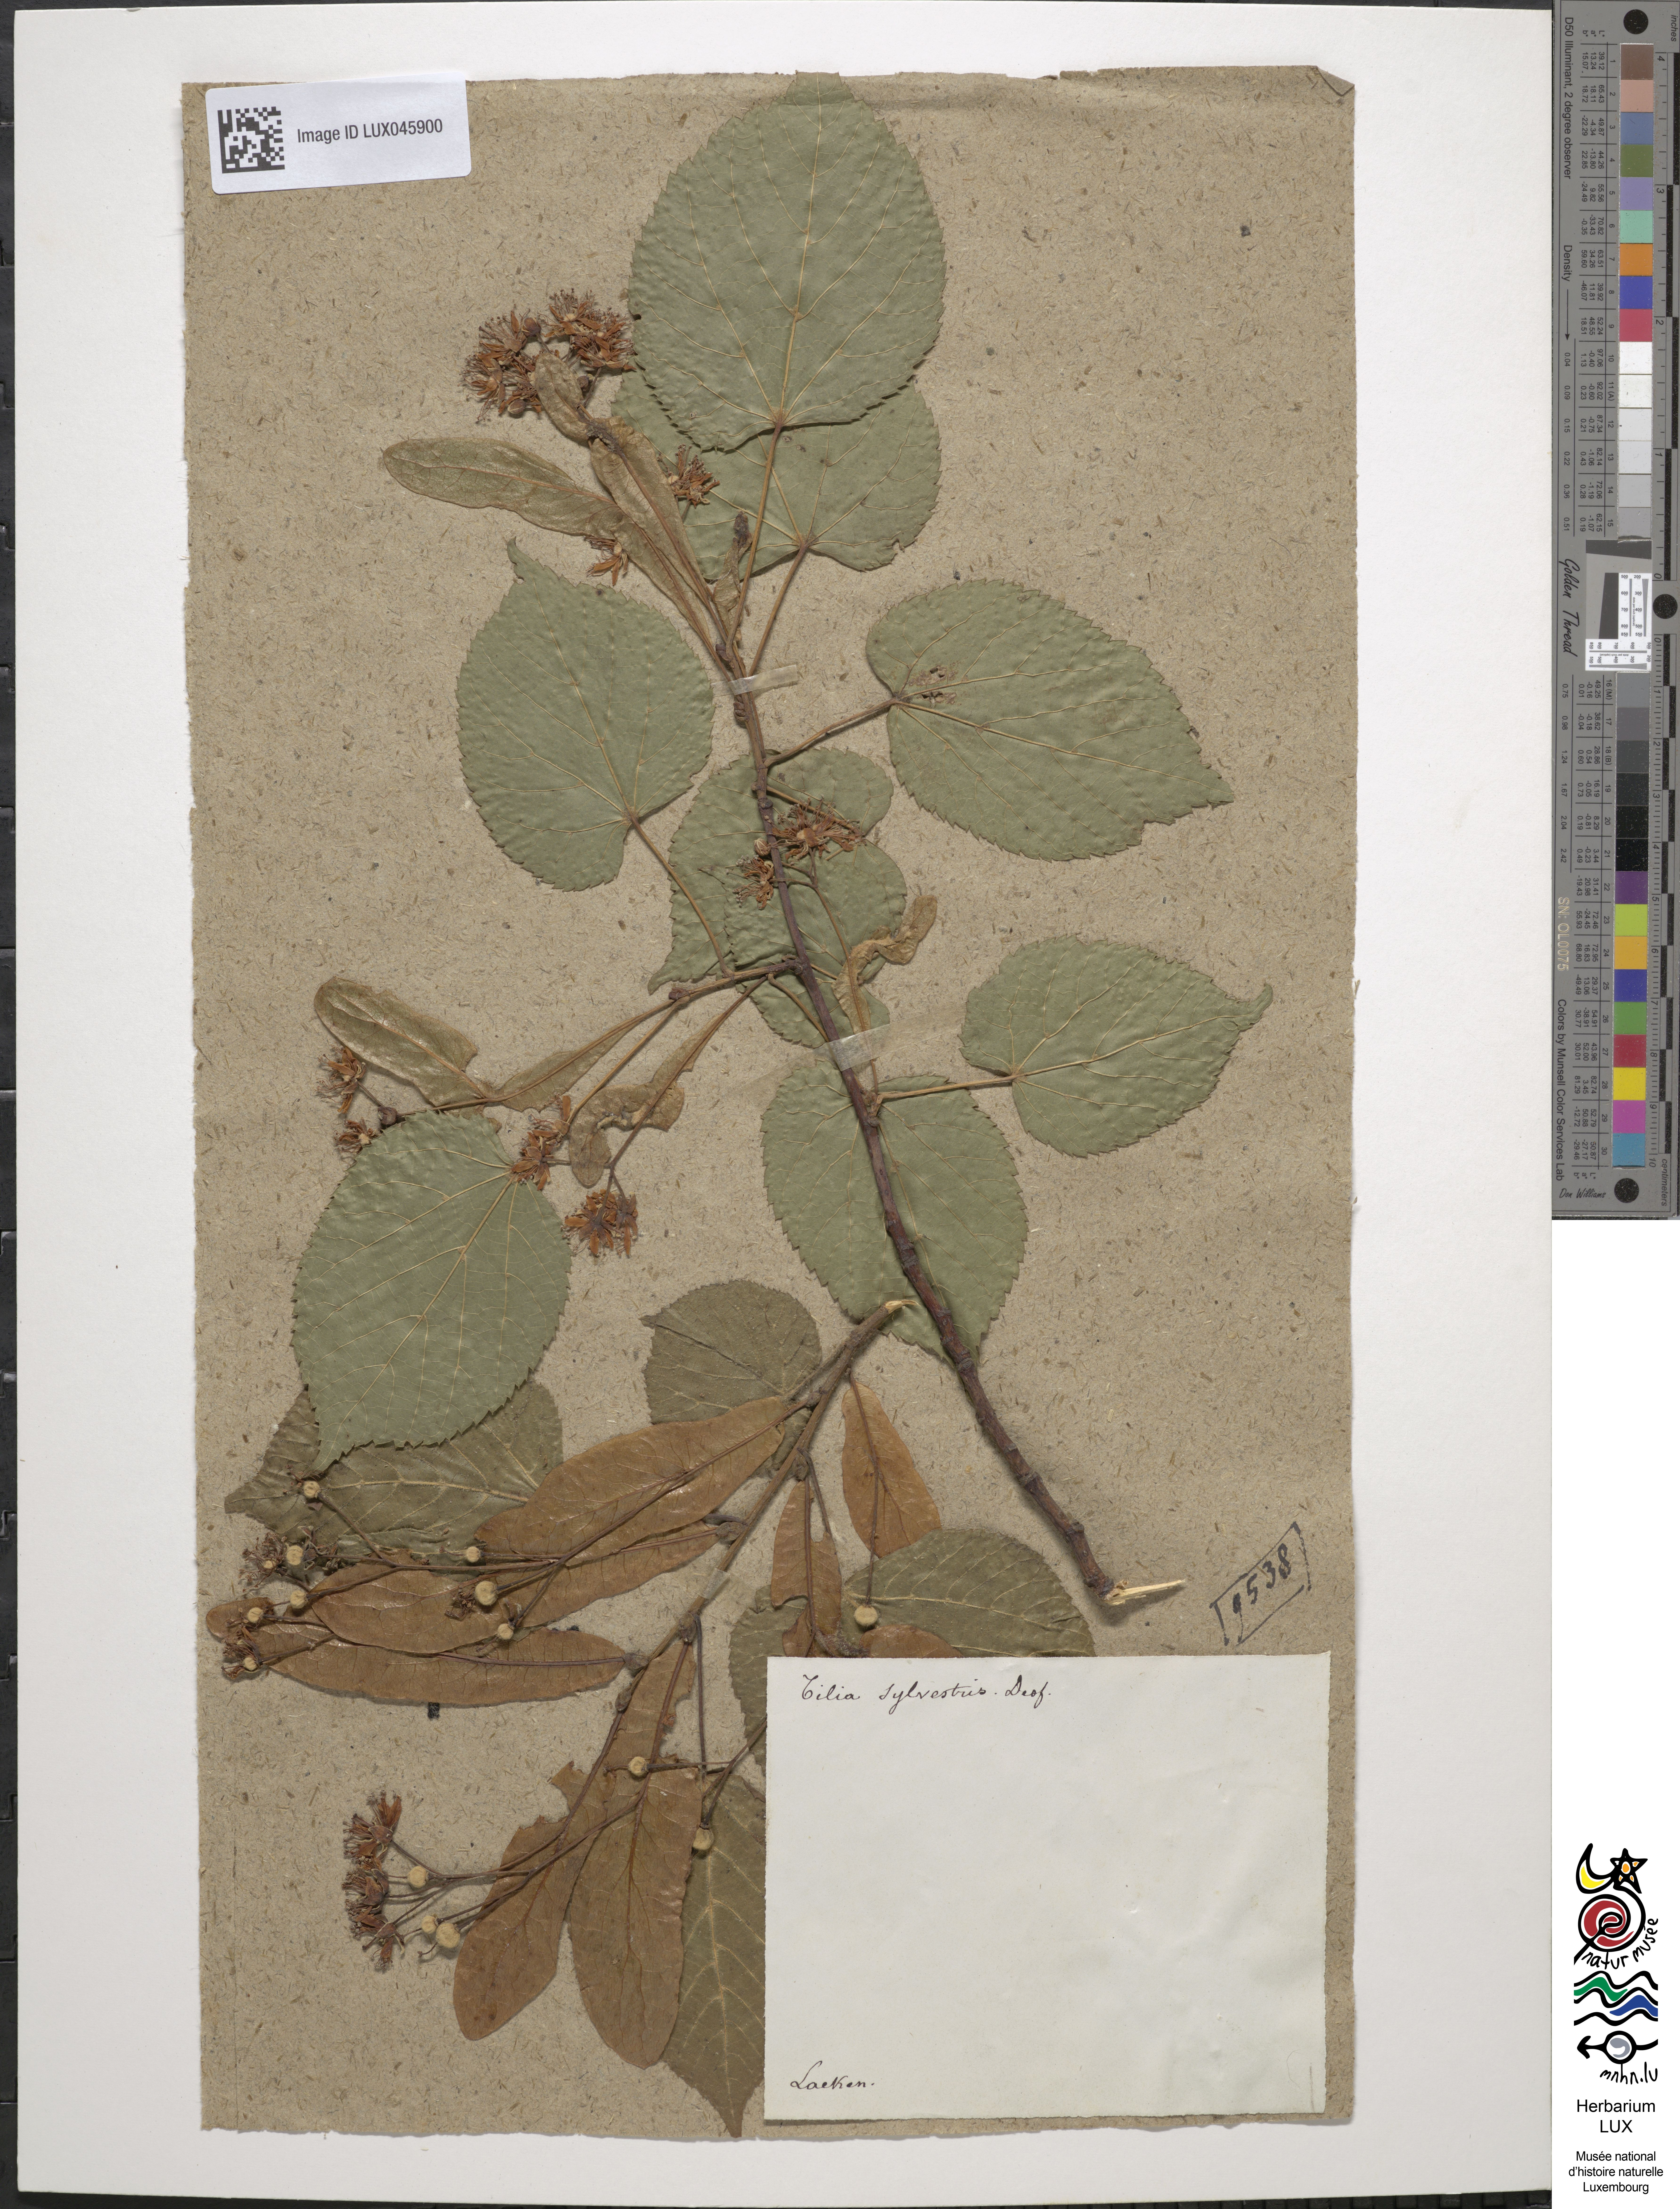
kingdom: Plantae
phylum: Tracheophyta
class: Magnoliopsida
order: Malvales
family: Malvaceae
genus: Tilia
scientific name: Tilia cordata
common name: Small-leaved lime
